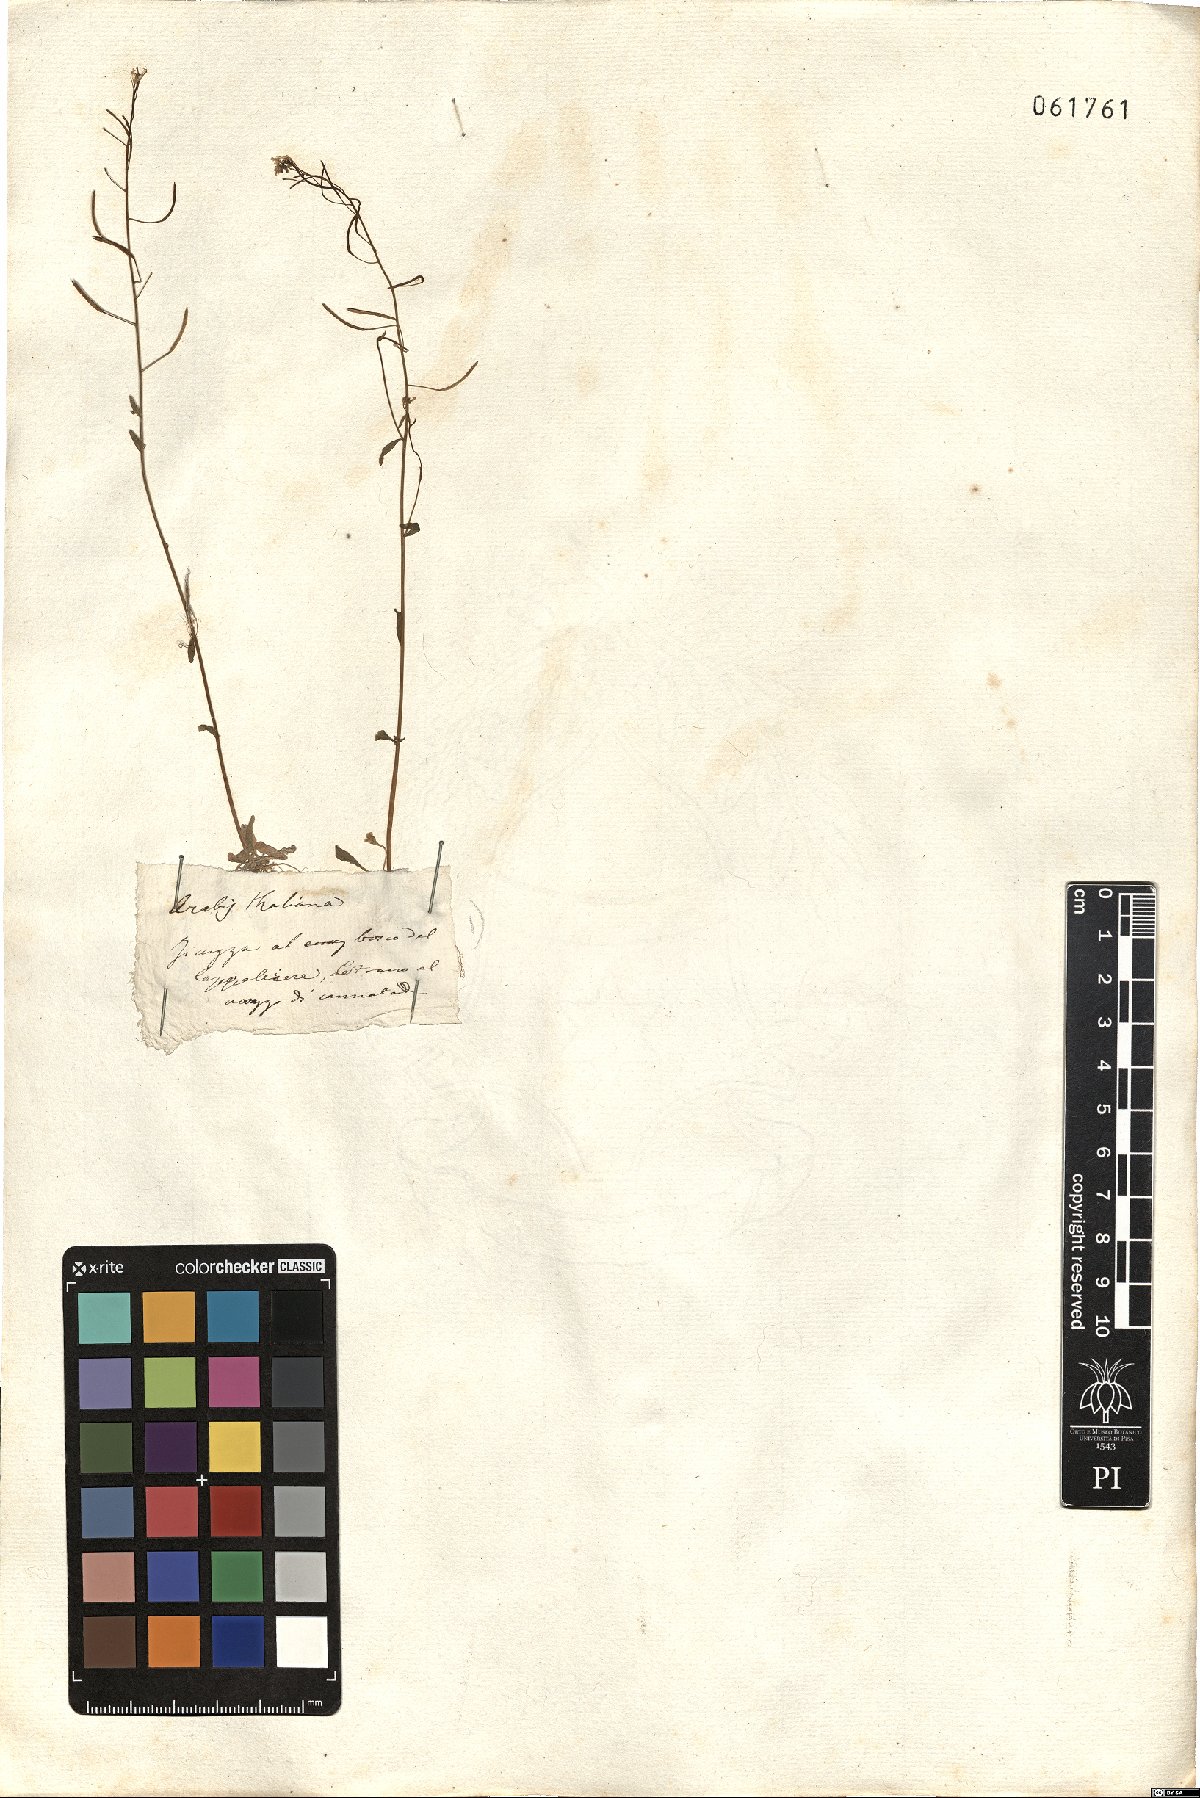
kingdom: Plantae
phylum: Tracheophyta
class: Magnoliopsida
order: Brassicales
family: Brassicaceae
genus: Arabidopsis
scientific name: Arabidopsis thaliana
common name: Thale cress
